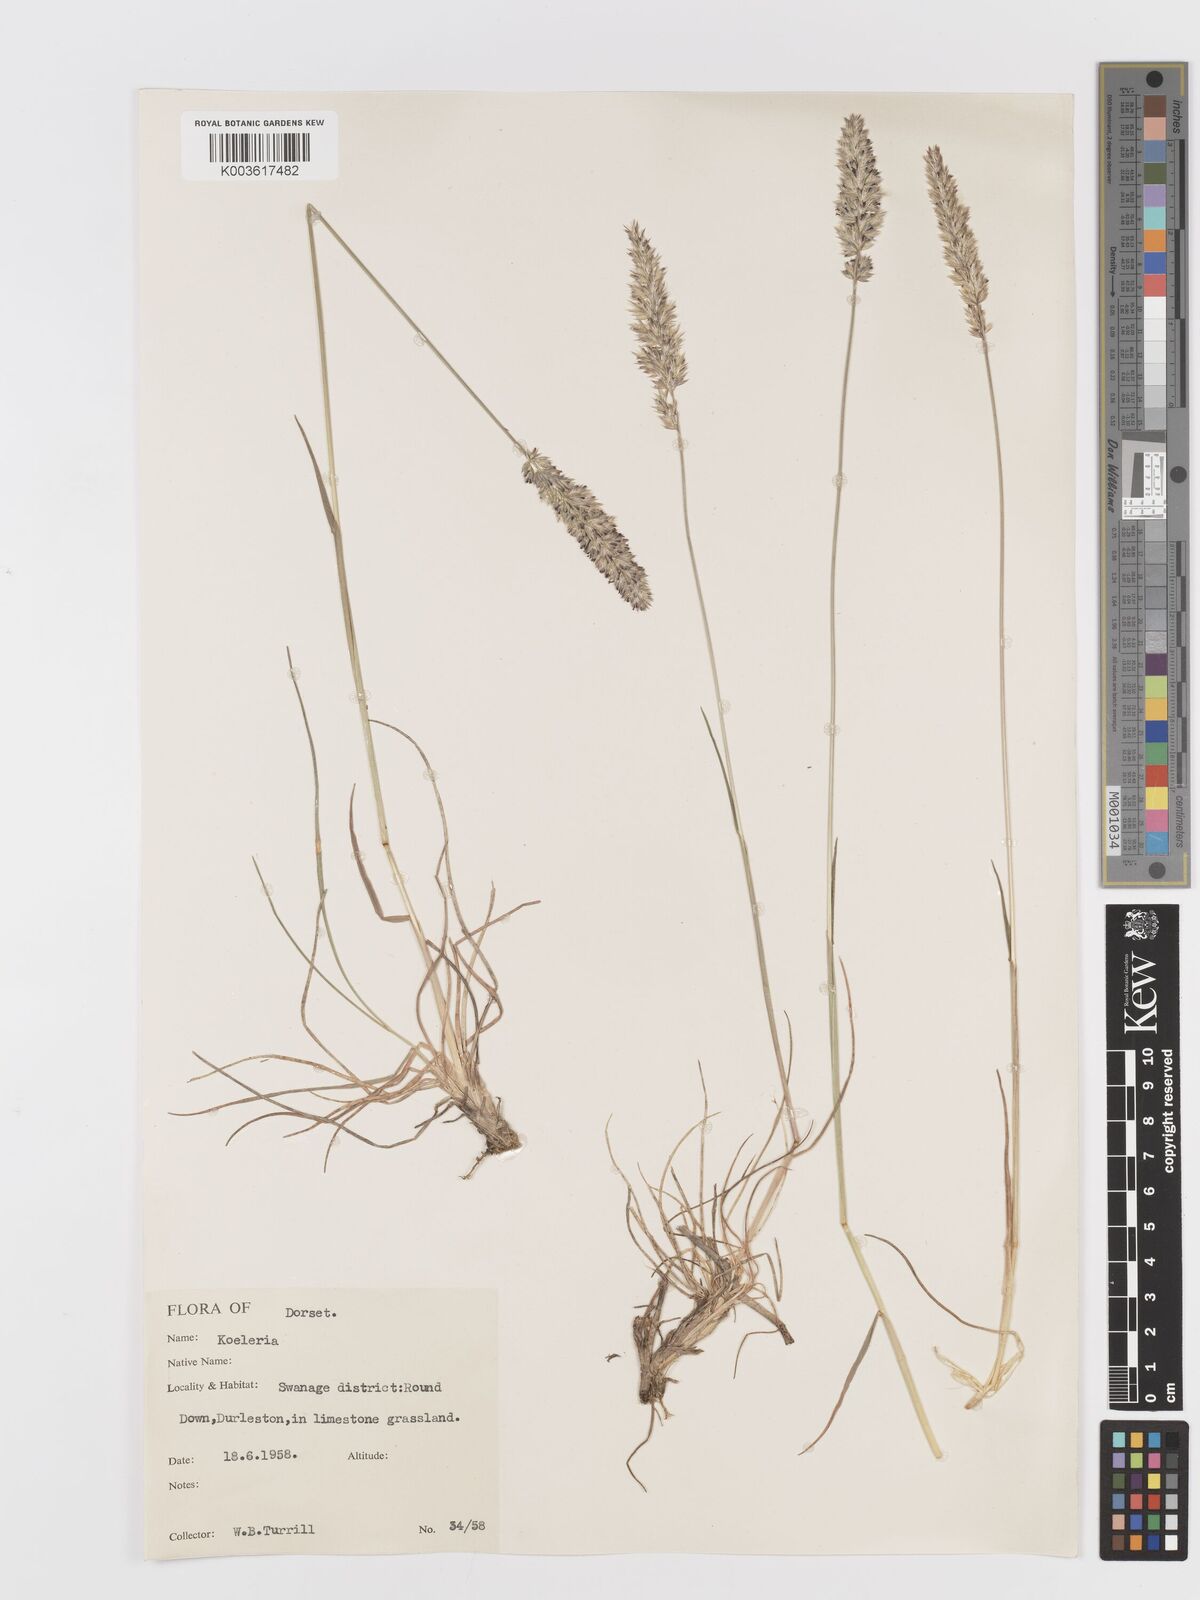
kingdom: Plantae
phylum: Tracheophyta
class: Liliopsida
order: Poales
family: Poaceae
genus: Koeleria
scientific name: Koeleria
